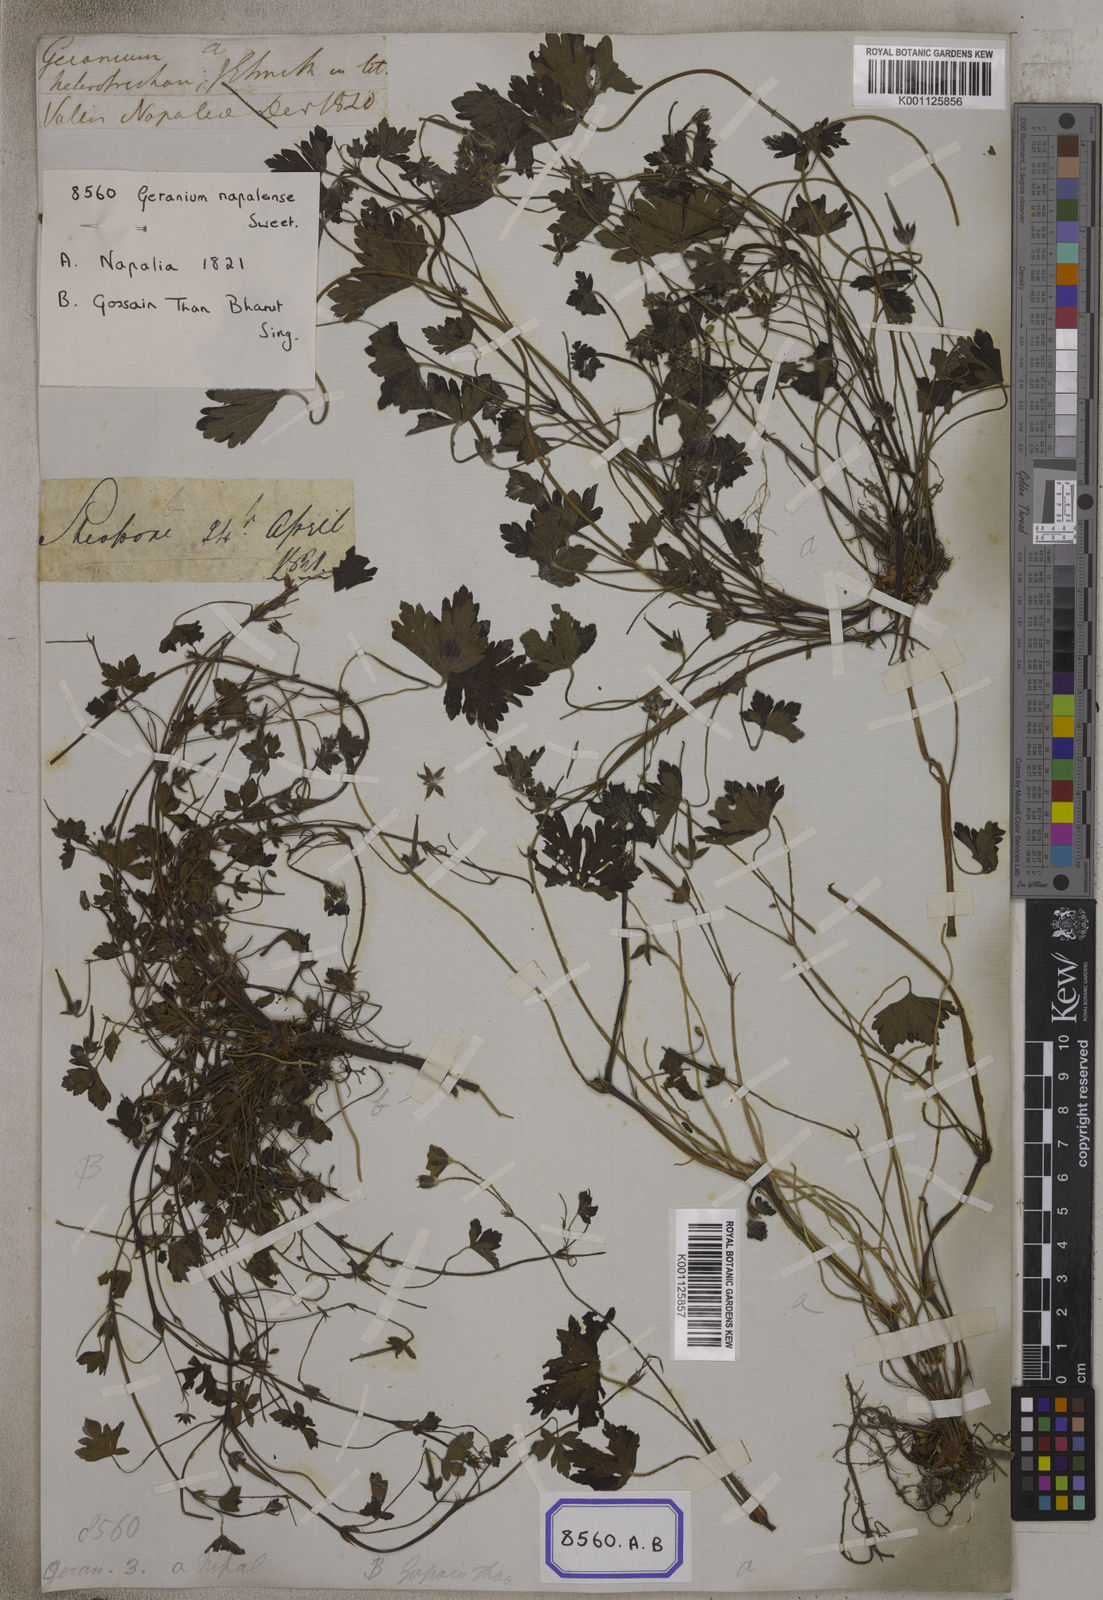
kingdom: Plantae
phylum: Tracheophyta
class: Magnoliopsida
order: Geraniales
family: Geraniaceae
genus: Geranium
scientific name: Geranium nepalense
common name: Nepalese crane's-bill
